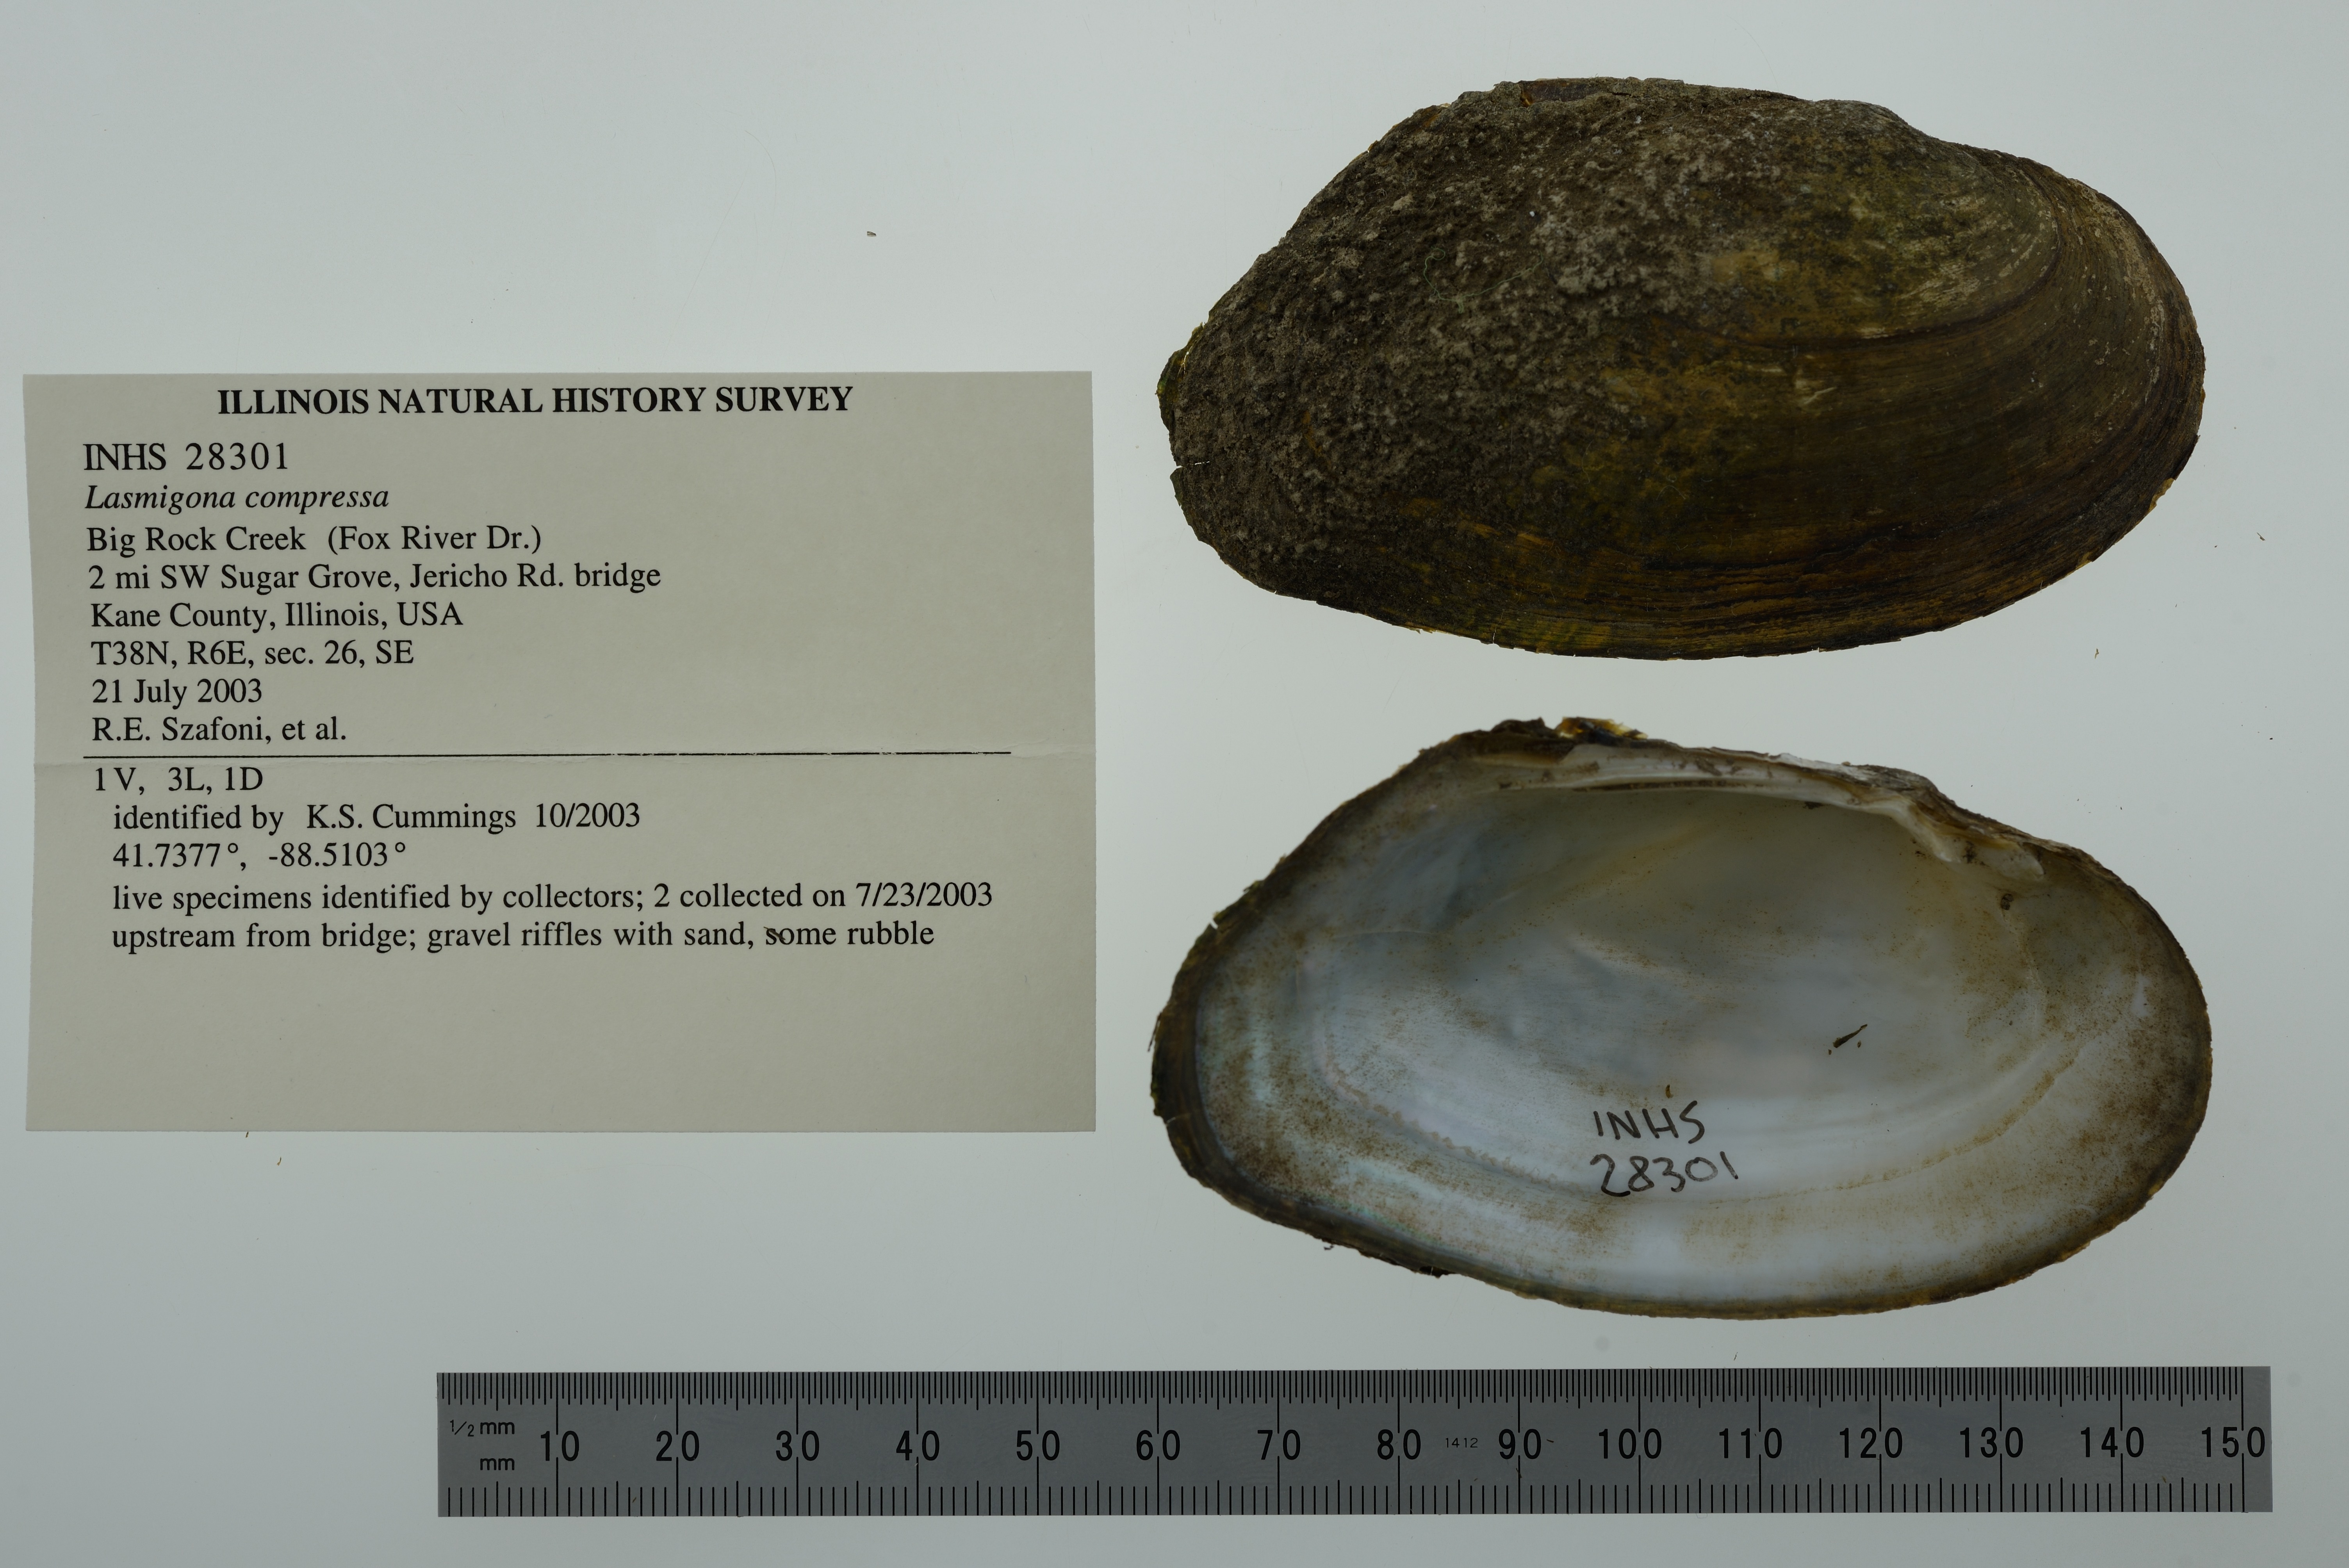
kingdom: Animalia
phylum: Mollusca
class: Bivalvia
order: Unionida
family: Unionidae
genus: Lasmigona
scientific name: Lasmigona compressa
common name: Creek heelsplitter
